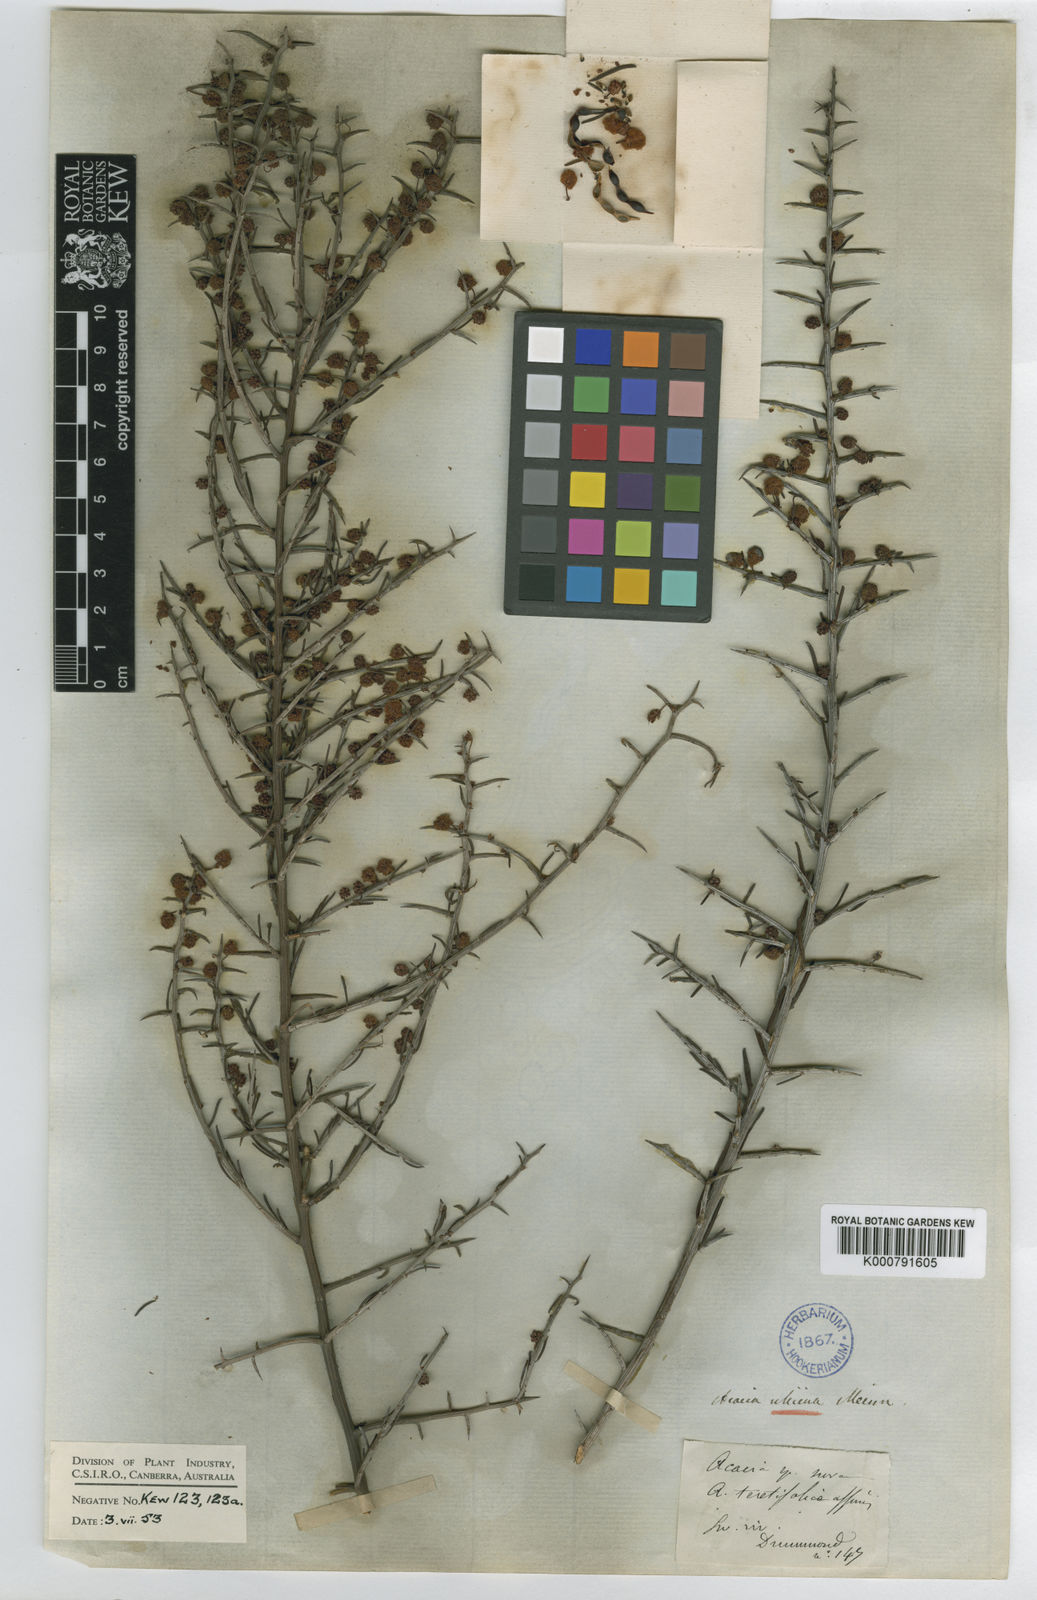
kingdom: Plantae
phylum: Tracheophyta
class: Magnoliopsida
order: Fabales
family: Fabaceae
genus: Acacia
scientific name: Acacia ulicina
